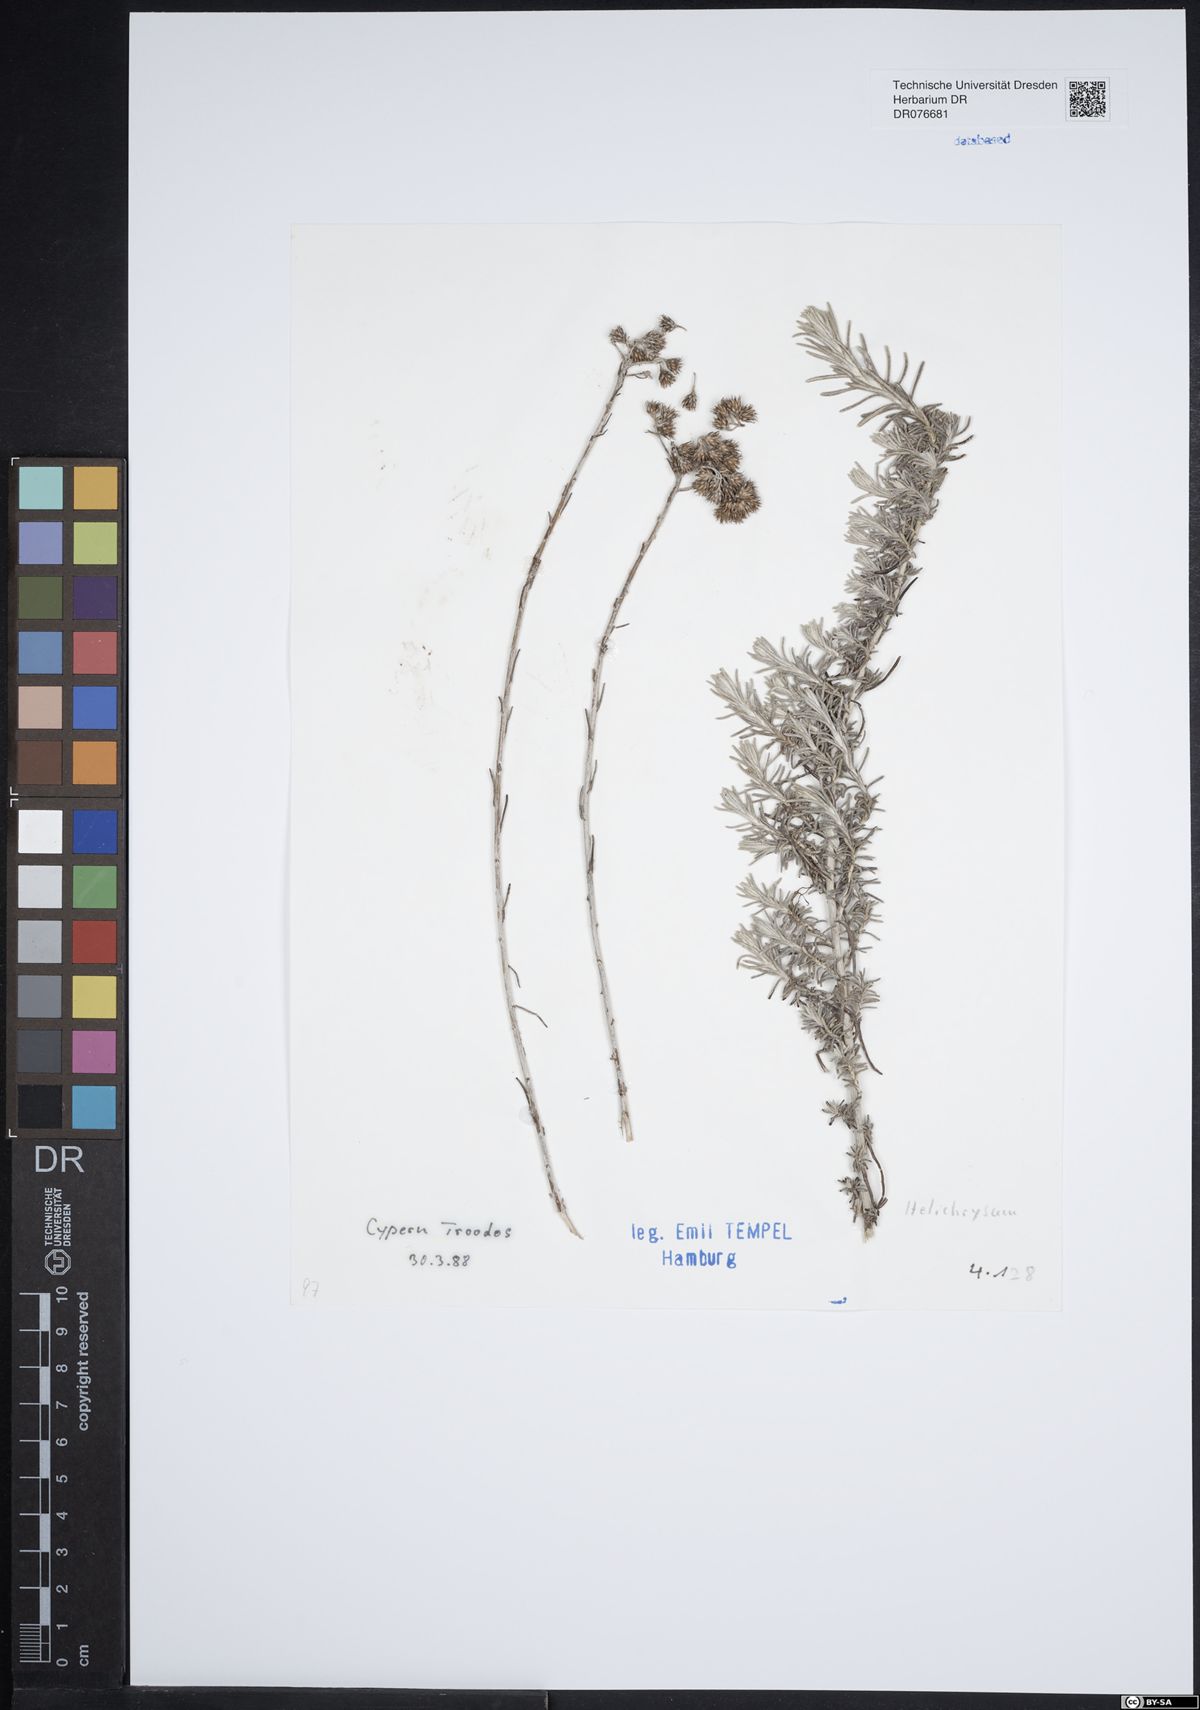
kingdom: Plantae
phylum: Tracheophyta
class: Magnoliopsida
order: Asterales
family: Asteraceae
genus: Helichrysum
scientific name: Helichrysum
